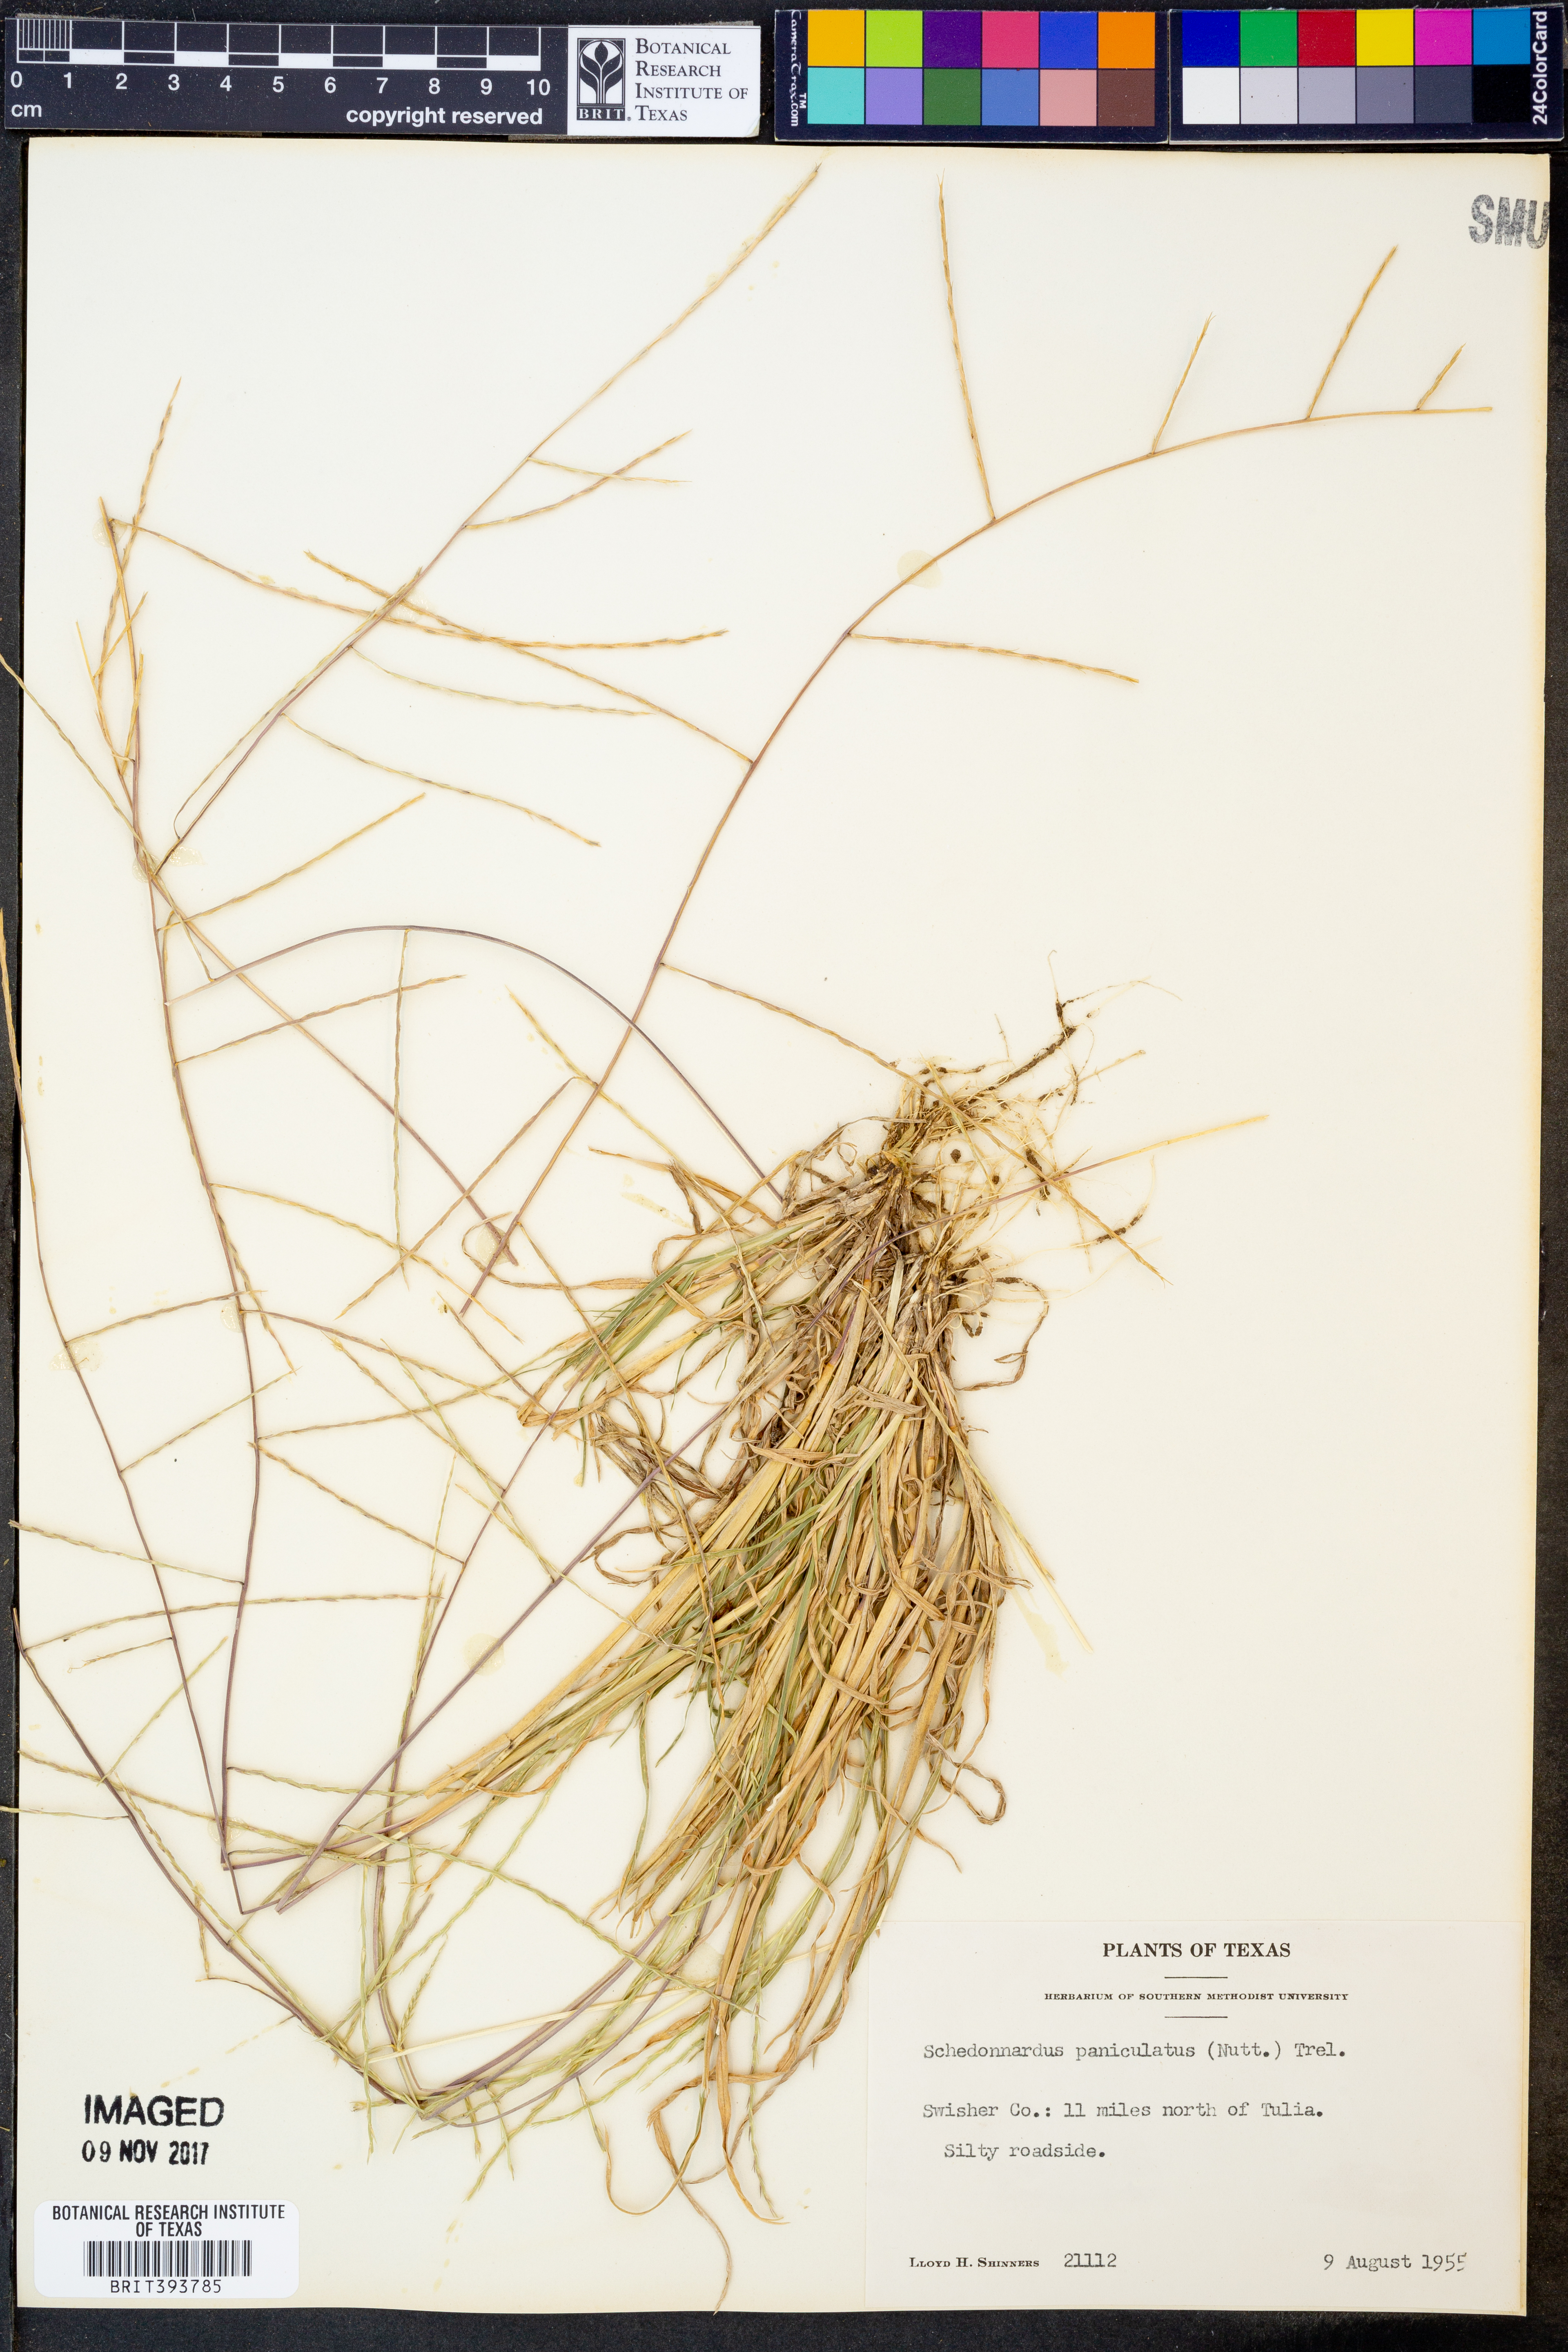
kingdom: Plantae
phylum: Tracheophyta
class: Liliopsida
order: Poales
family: Poaceae
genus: Muhlenbergia
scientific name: Muhlenbergia paniculata
